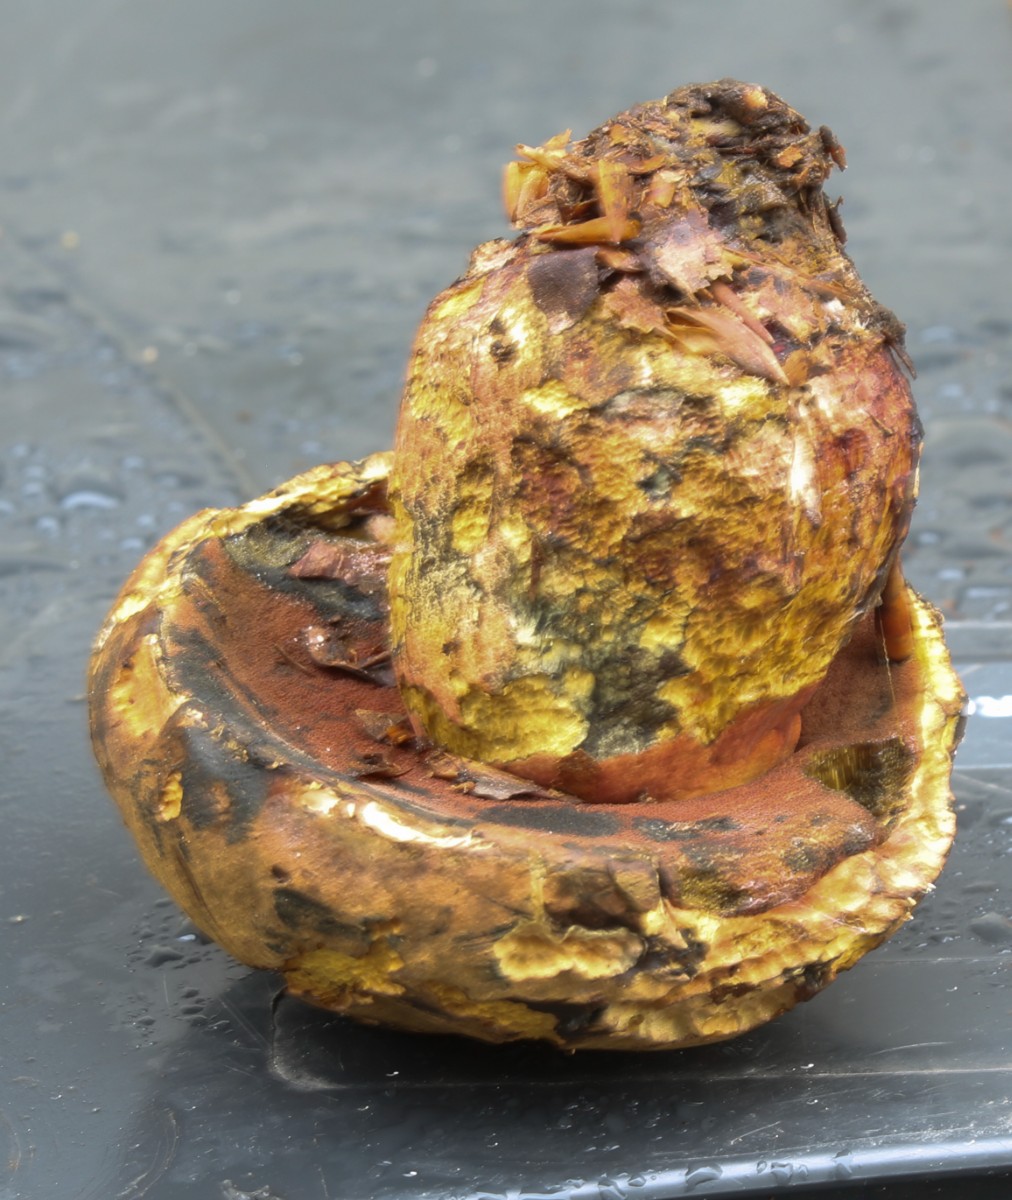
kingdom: Fungi
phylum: Basidiomycota
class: Agaricomycetes
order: Boletales
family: Boletaceae
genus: Neoboletus
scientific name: Neoboletus erythropus
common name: punktstokket indigorørhat
